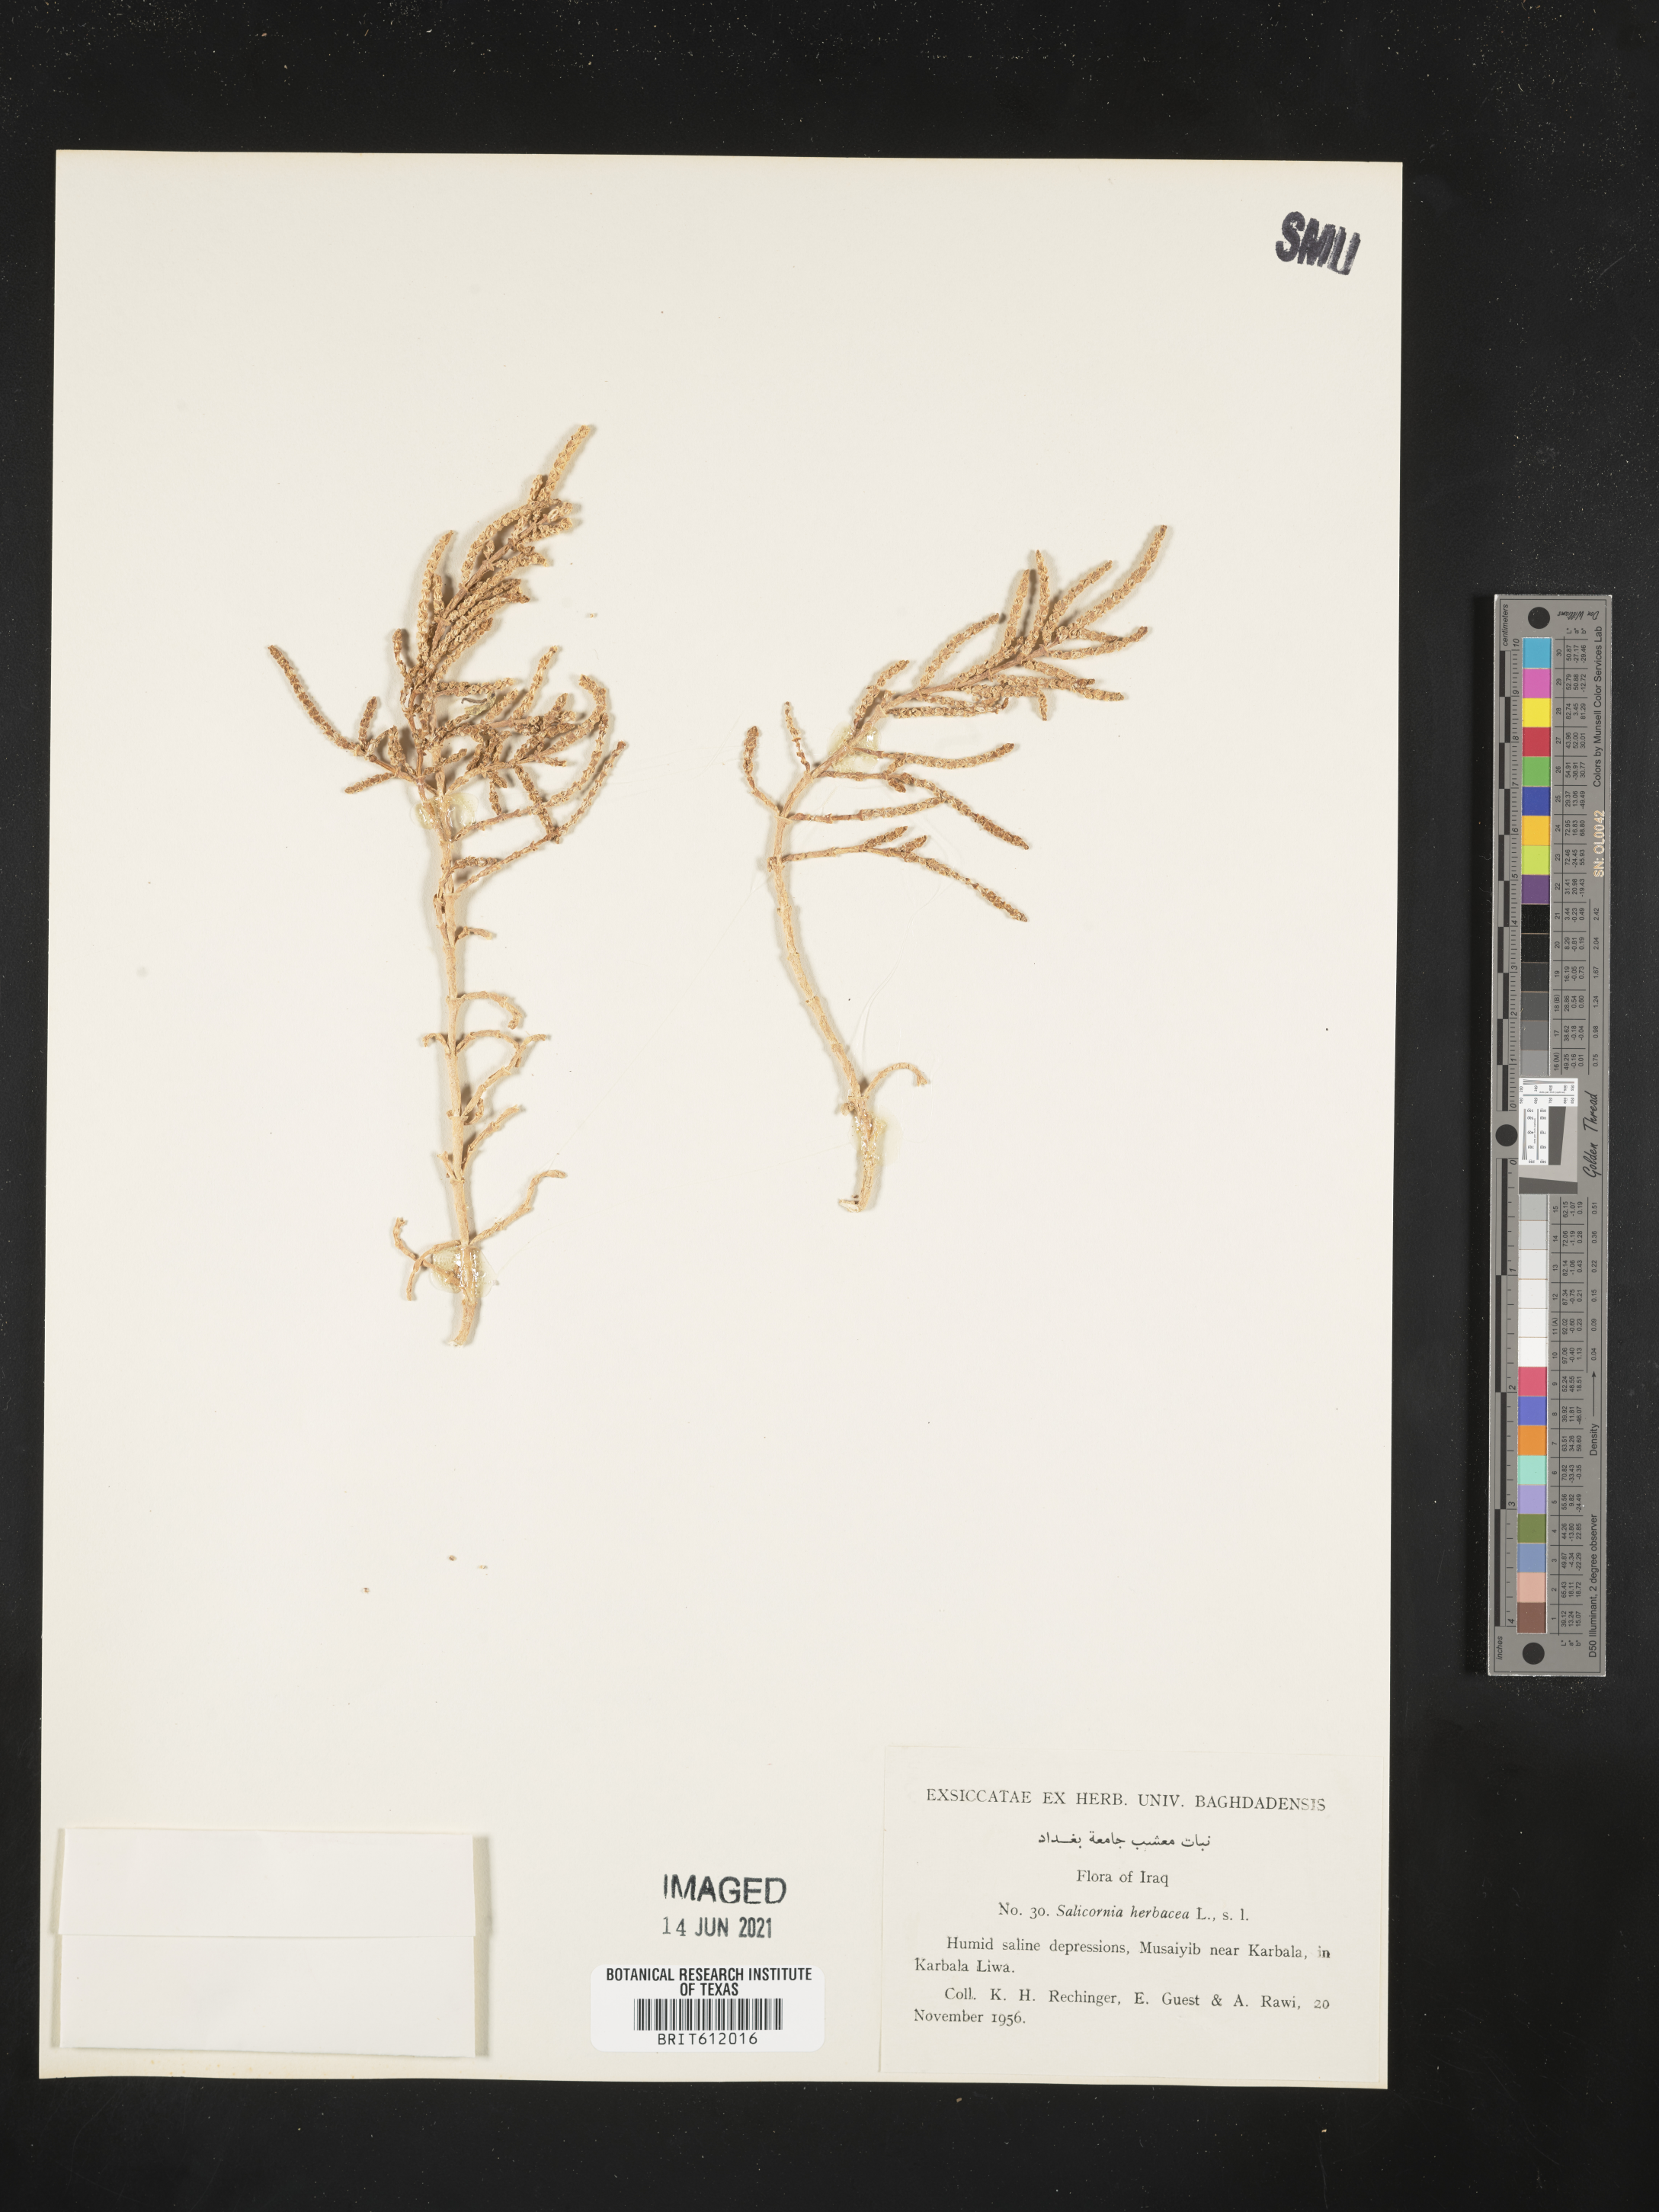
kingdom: Plantae
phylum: Tracheophyta
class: Magnoliopsida
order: Caryophyllales
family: Amaranthaceae
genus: Salicornia
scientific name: Salicornia herbacea
